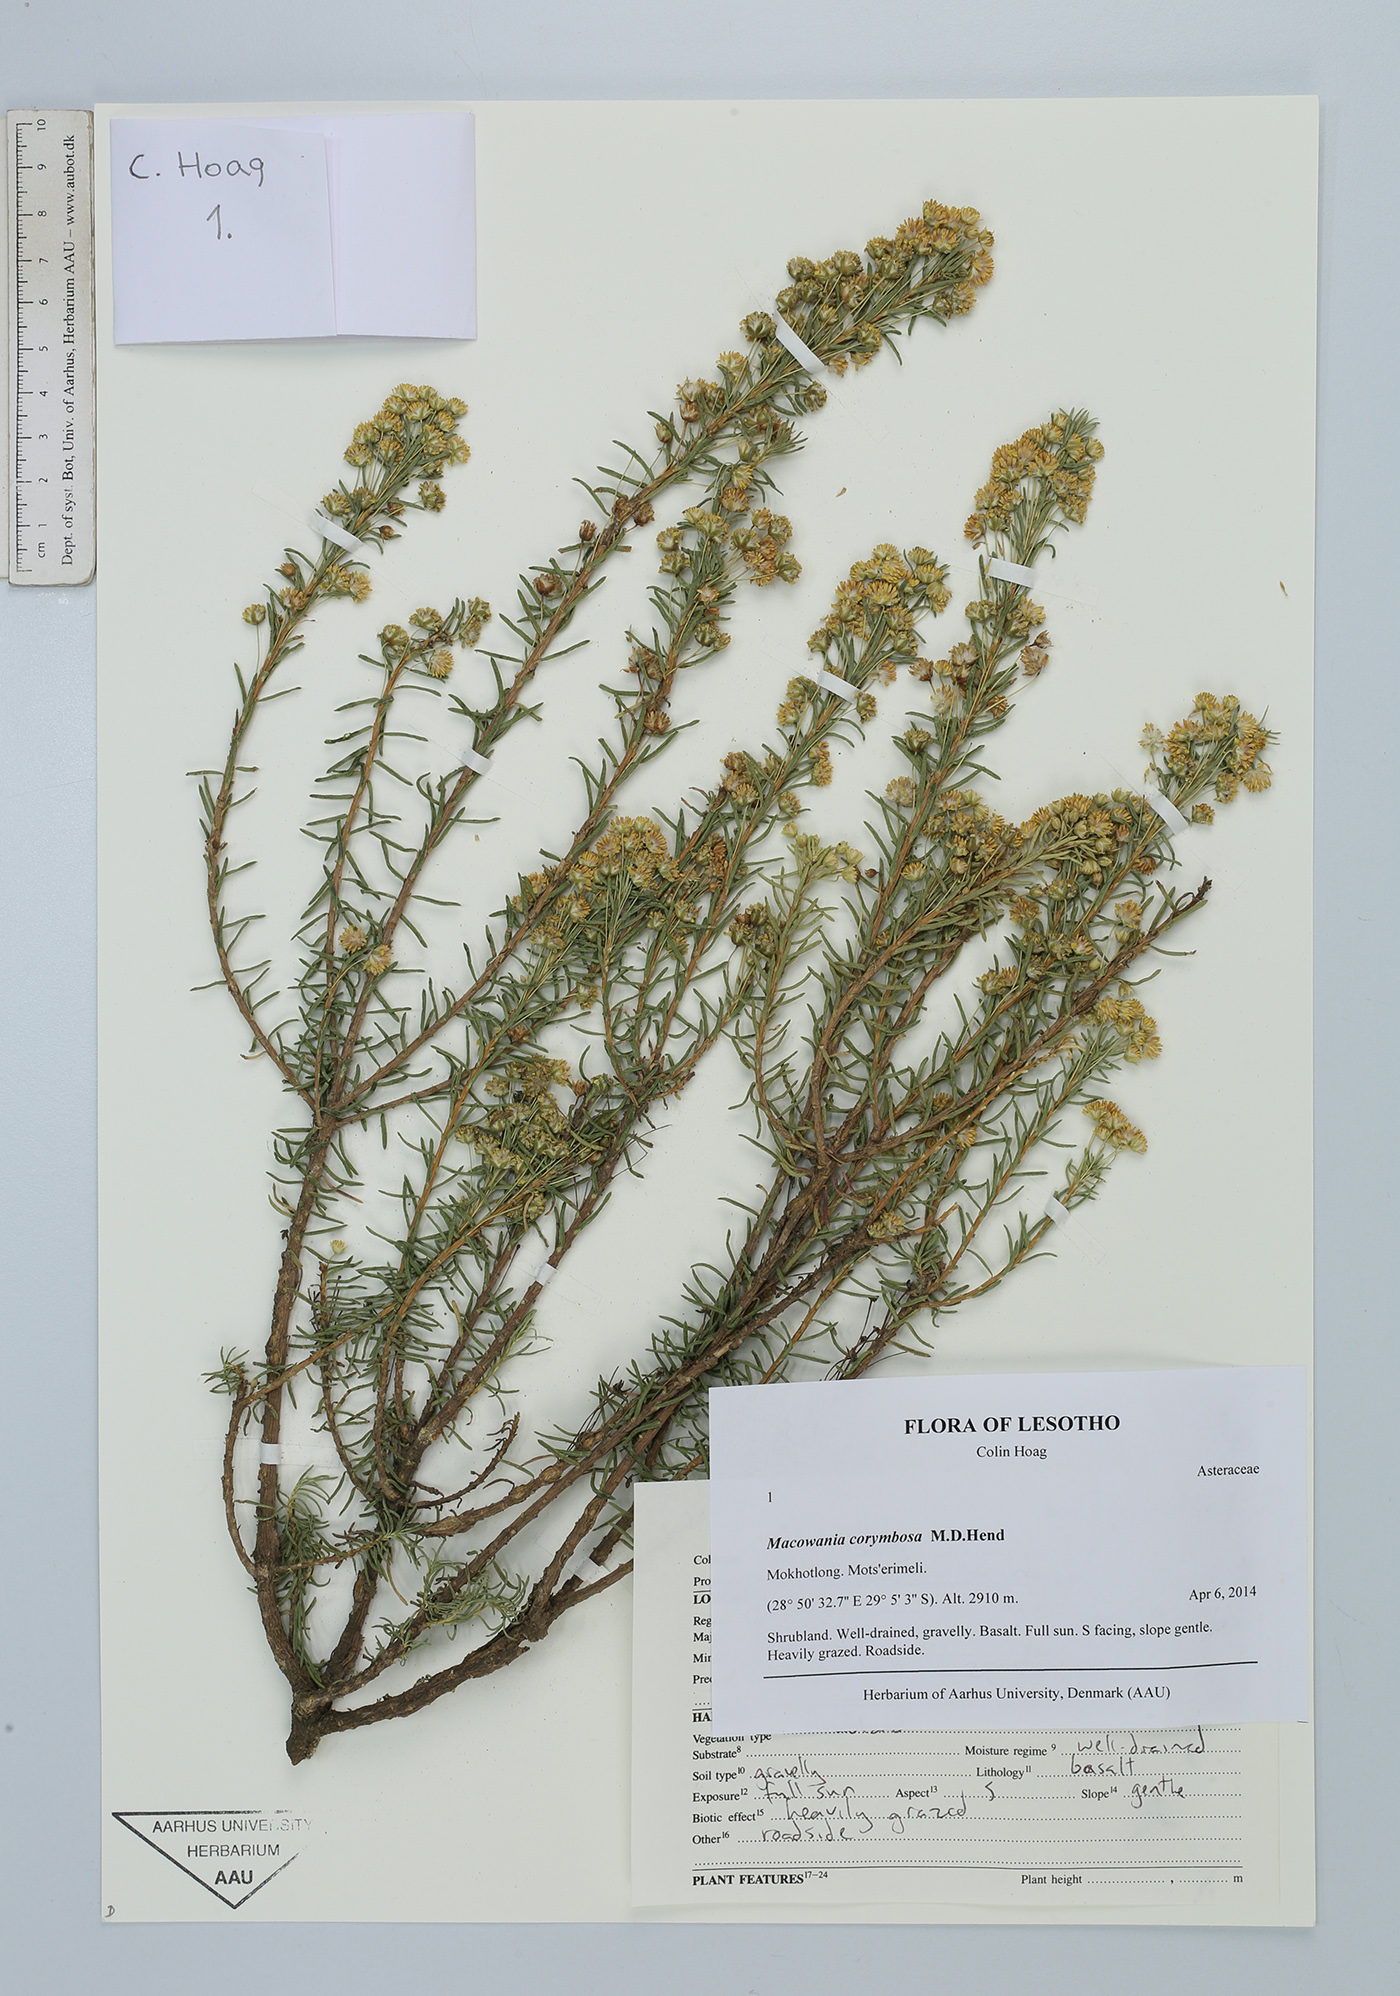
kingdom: Plantae
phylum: Tracheophyta
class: Magnoliopsida
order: Asterales
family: Asteraceae
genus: Arrowsmithia
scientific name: Arrowsmithia corymbosa
